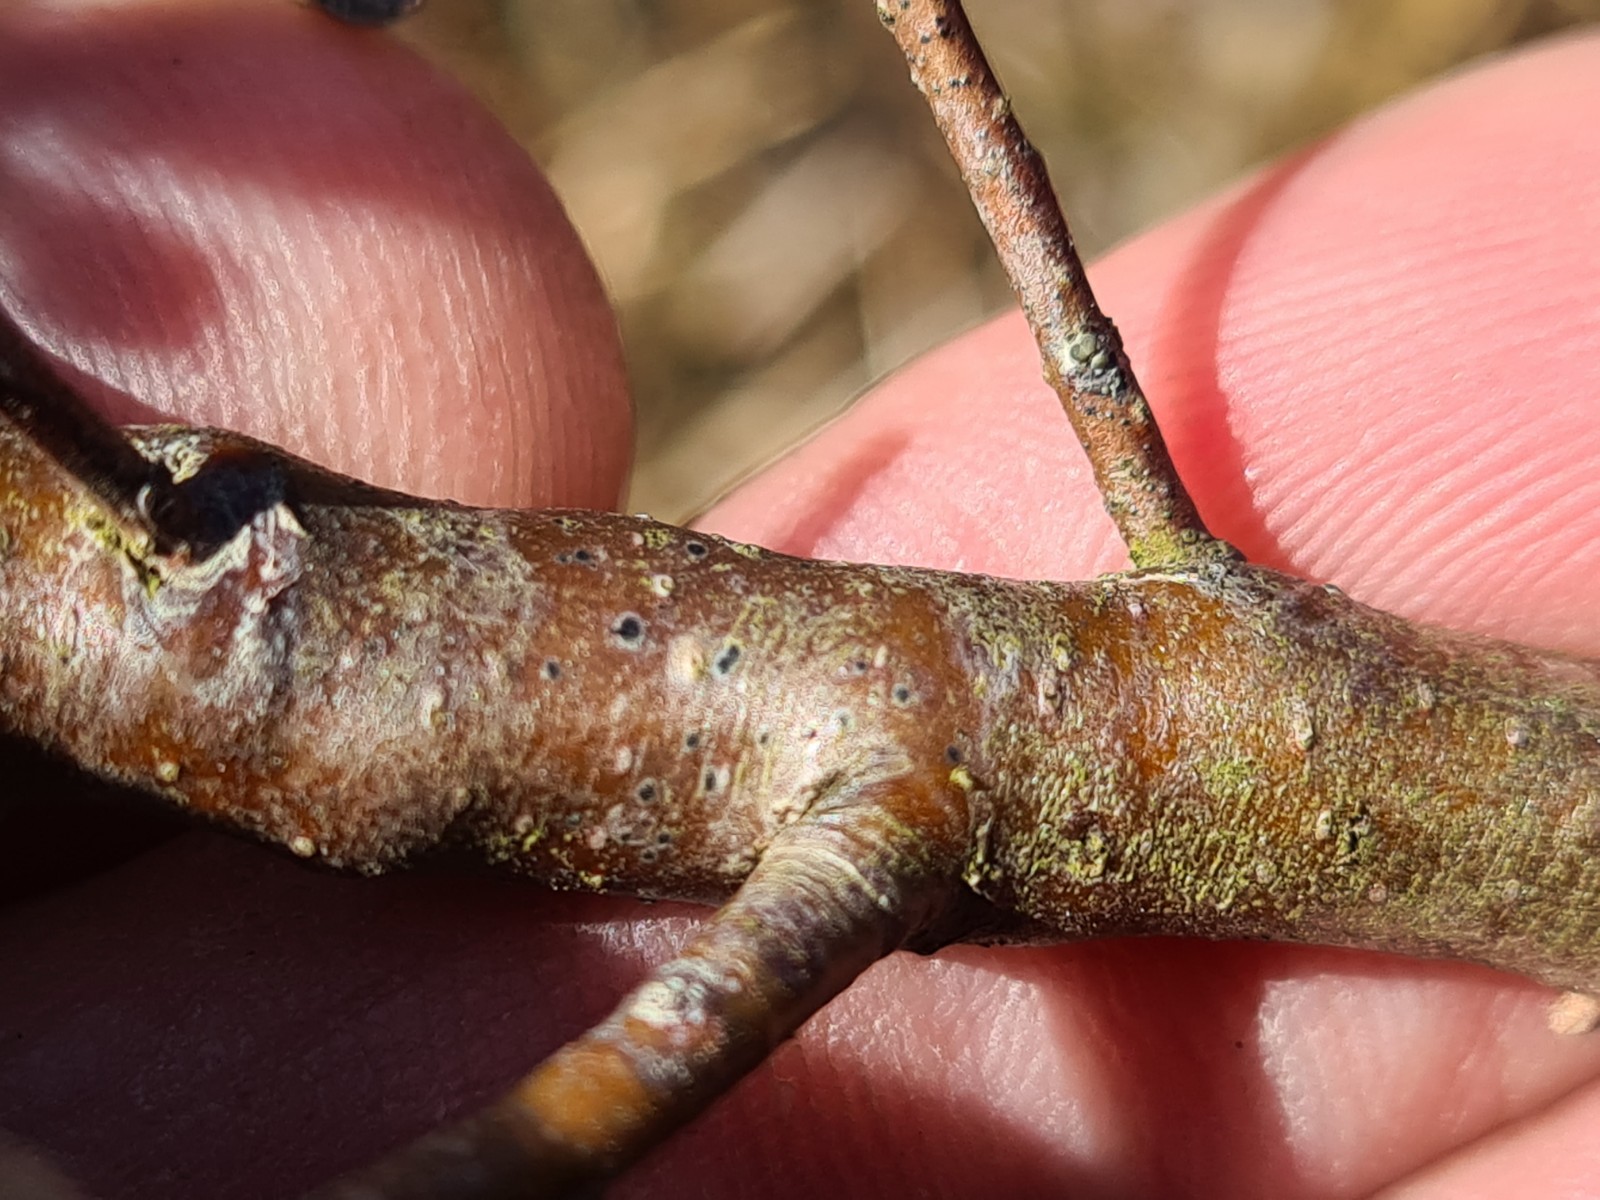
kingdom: Fungi
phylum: Ascomycota
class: Dothideomycetes
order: Dothideales
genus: Mycoglaena
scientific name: Mycoglaena myricae
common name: liden porsprik
